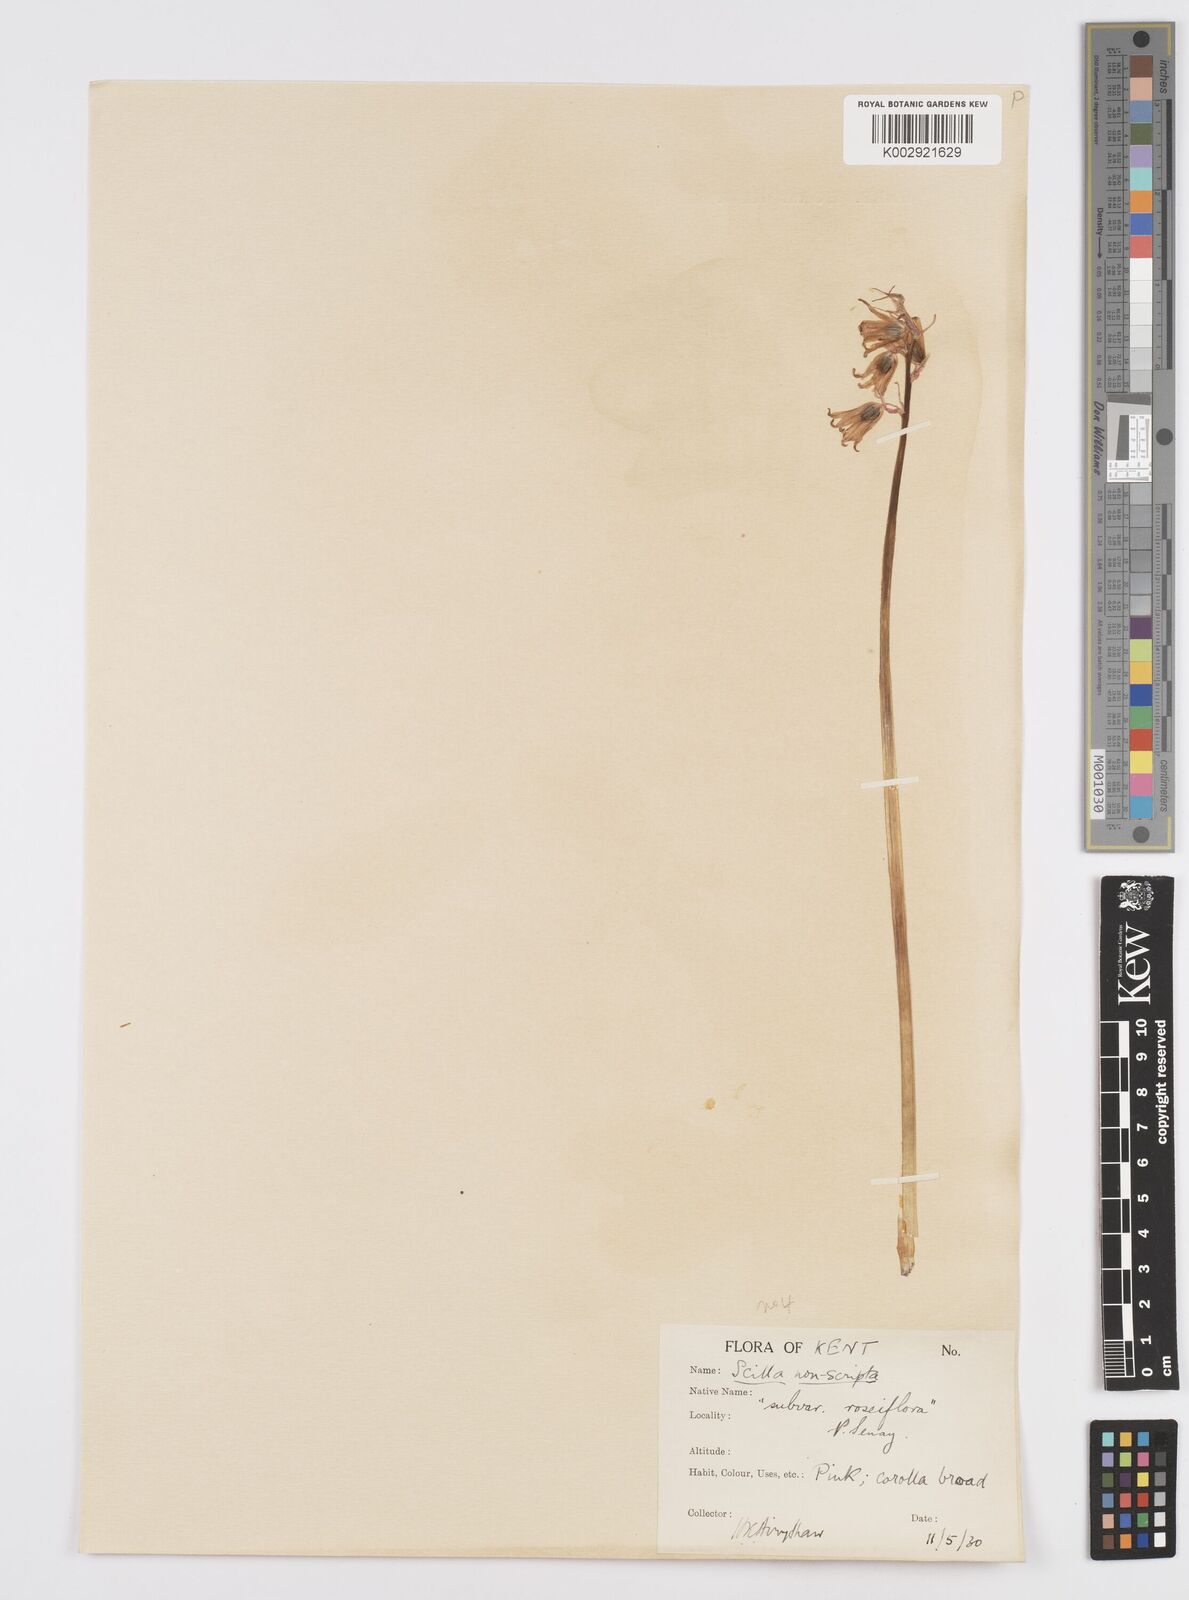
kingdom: Plantae
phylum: Tracheophyta
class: Liliopsida
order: Asparagales
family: Asparagaceae
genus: Hyacinthoides
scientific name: Hyacinthoides non-scripta
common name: Bluebell
